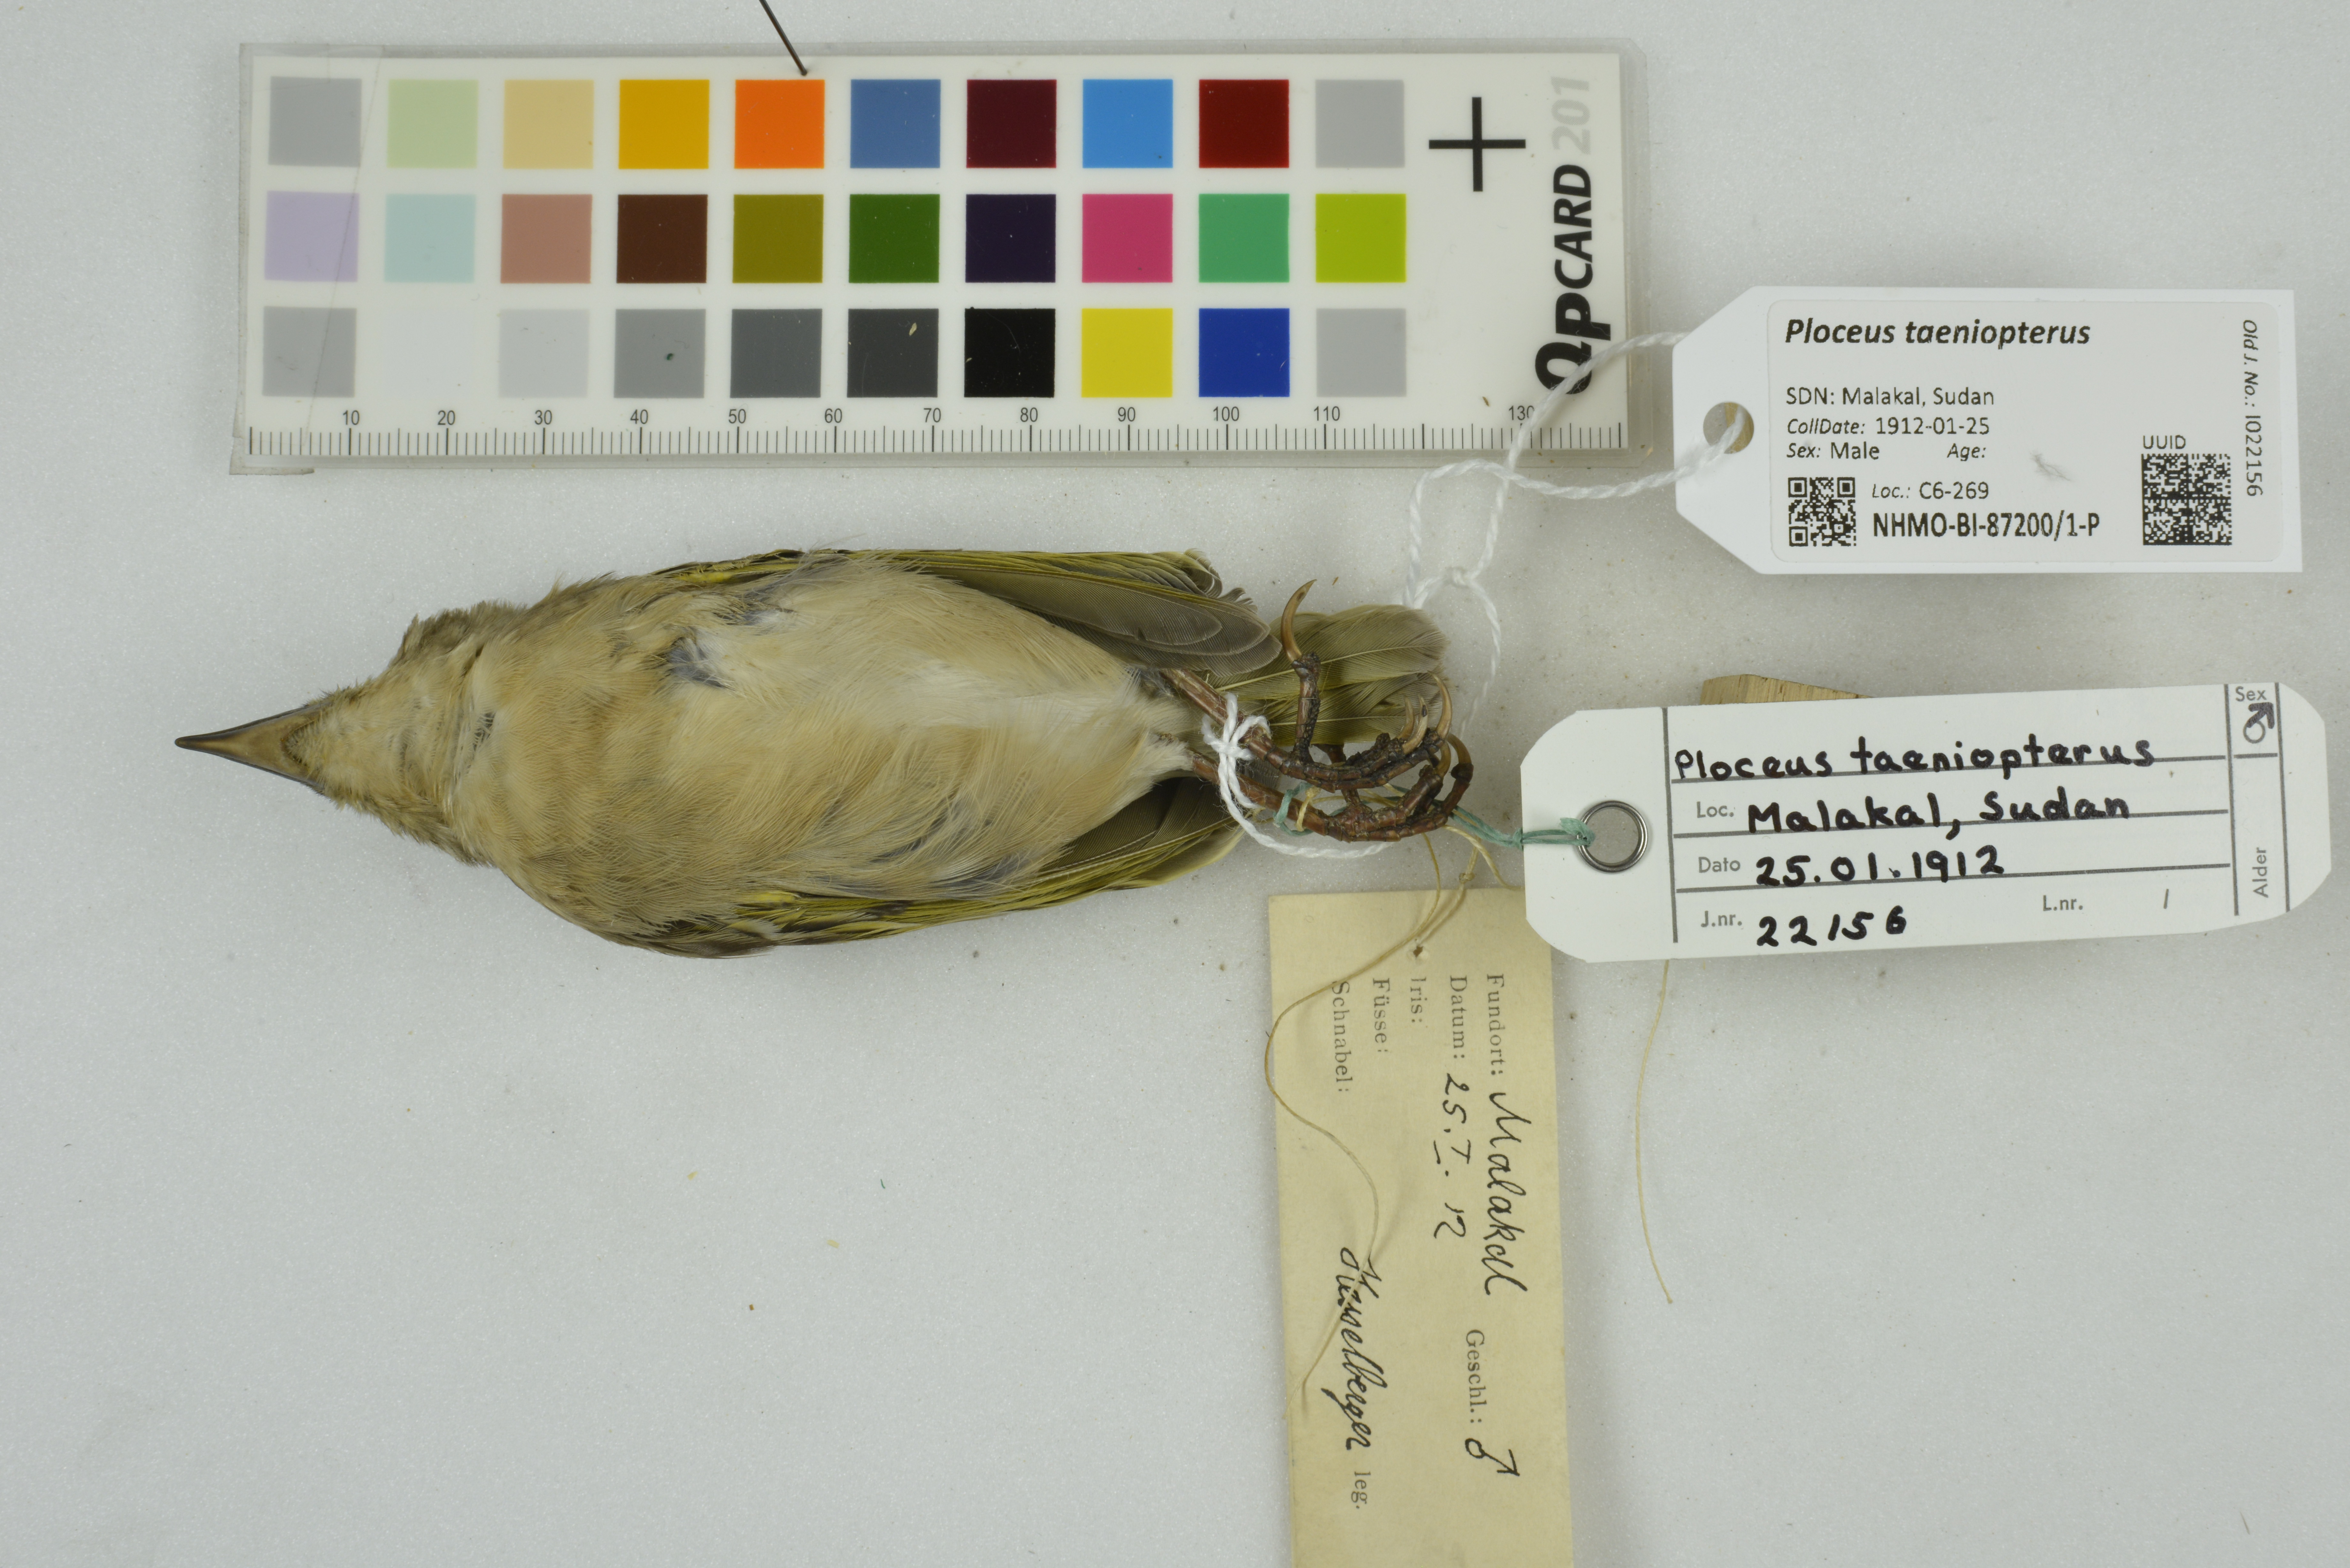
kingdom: Animalia
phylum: Chordata
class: Aves
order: Passeriformes
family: Ploceidae
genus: Ploceus
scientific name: Ploceus taeniopterus
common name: Northern masked weaver
